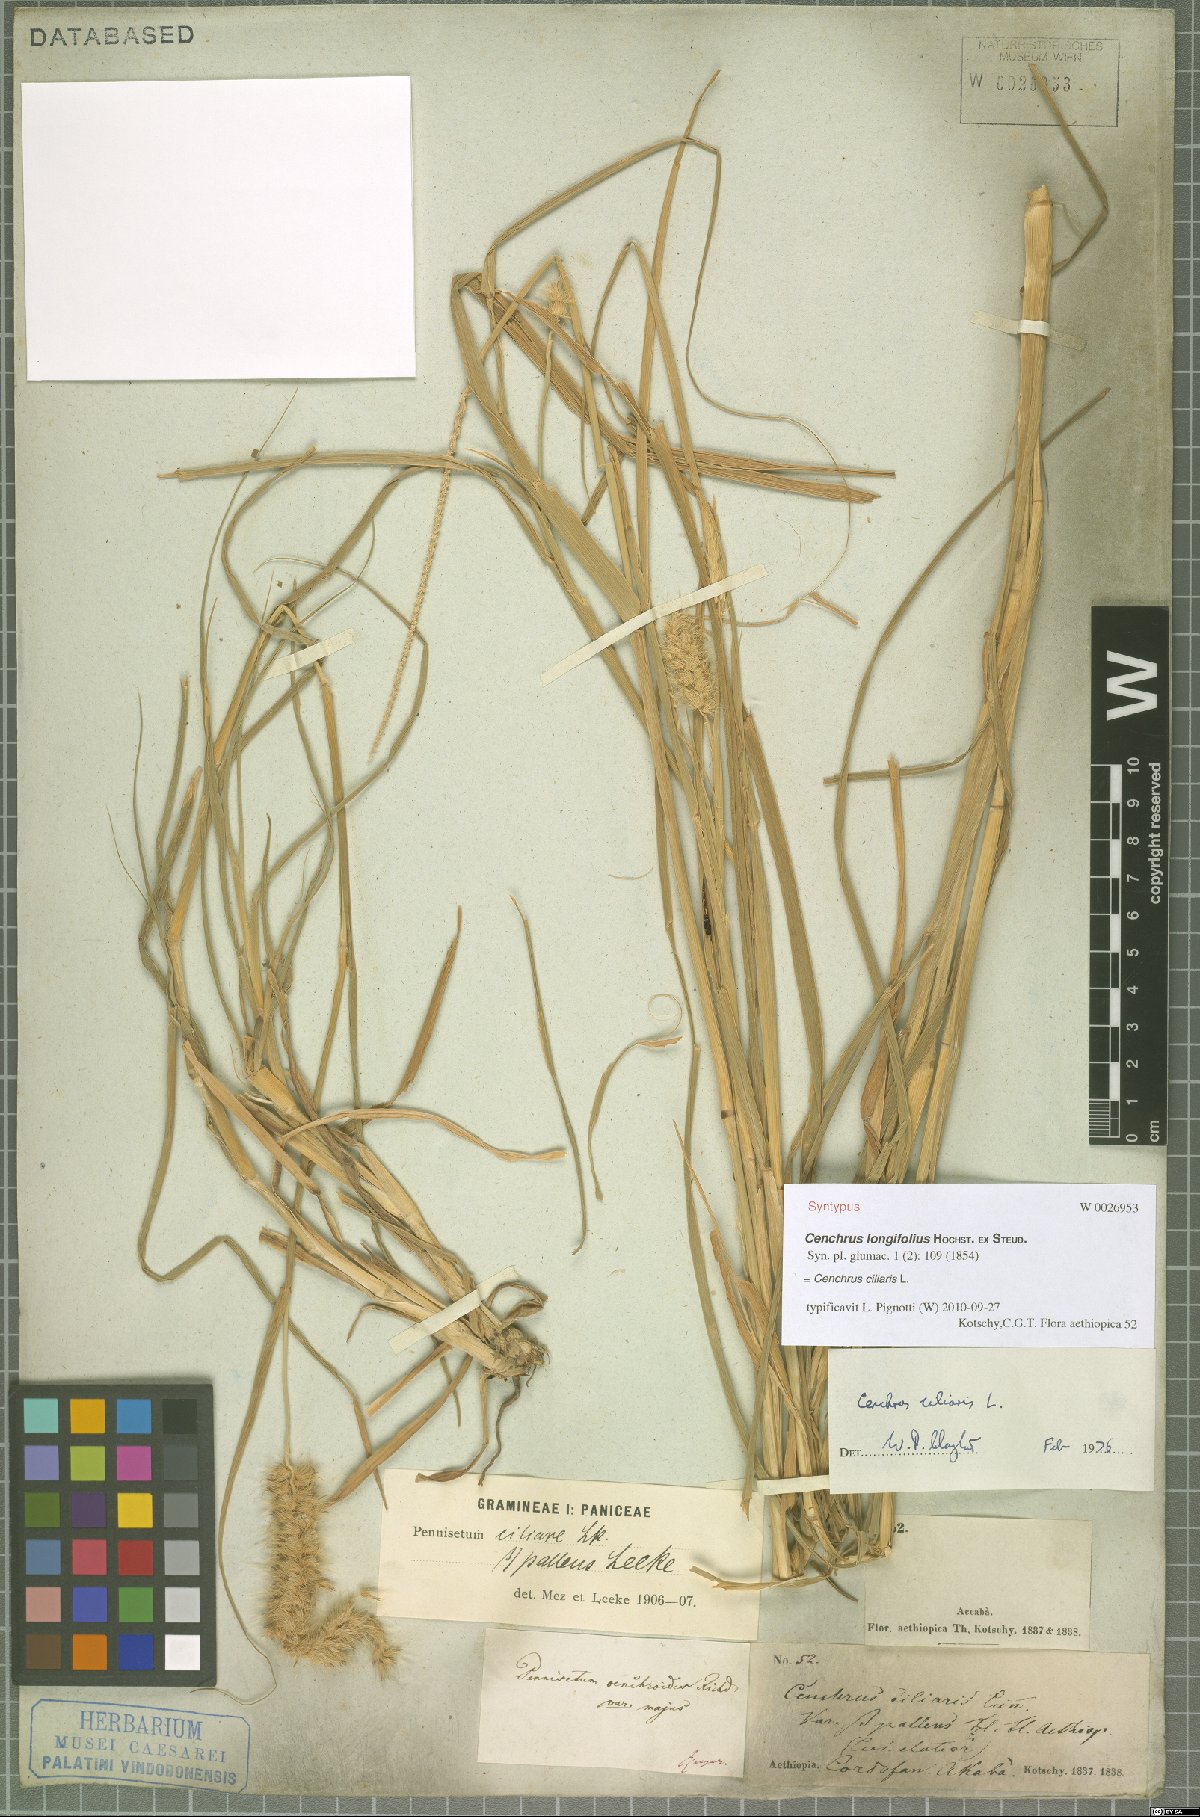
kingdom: Plantae
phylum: Tracheophyta
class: Liliopsida
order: Poales
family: Poaceae
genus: Cenchrus
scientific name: Cenchrus ciliaris
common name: Buffelgrass
